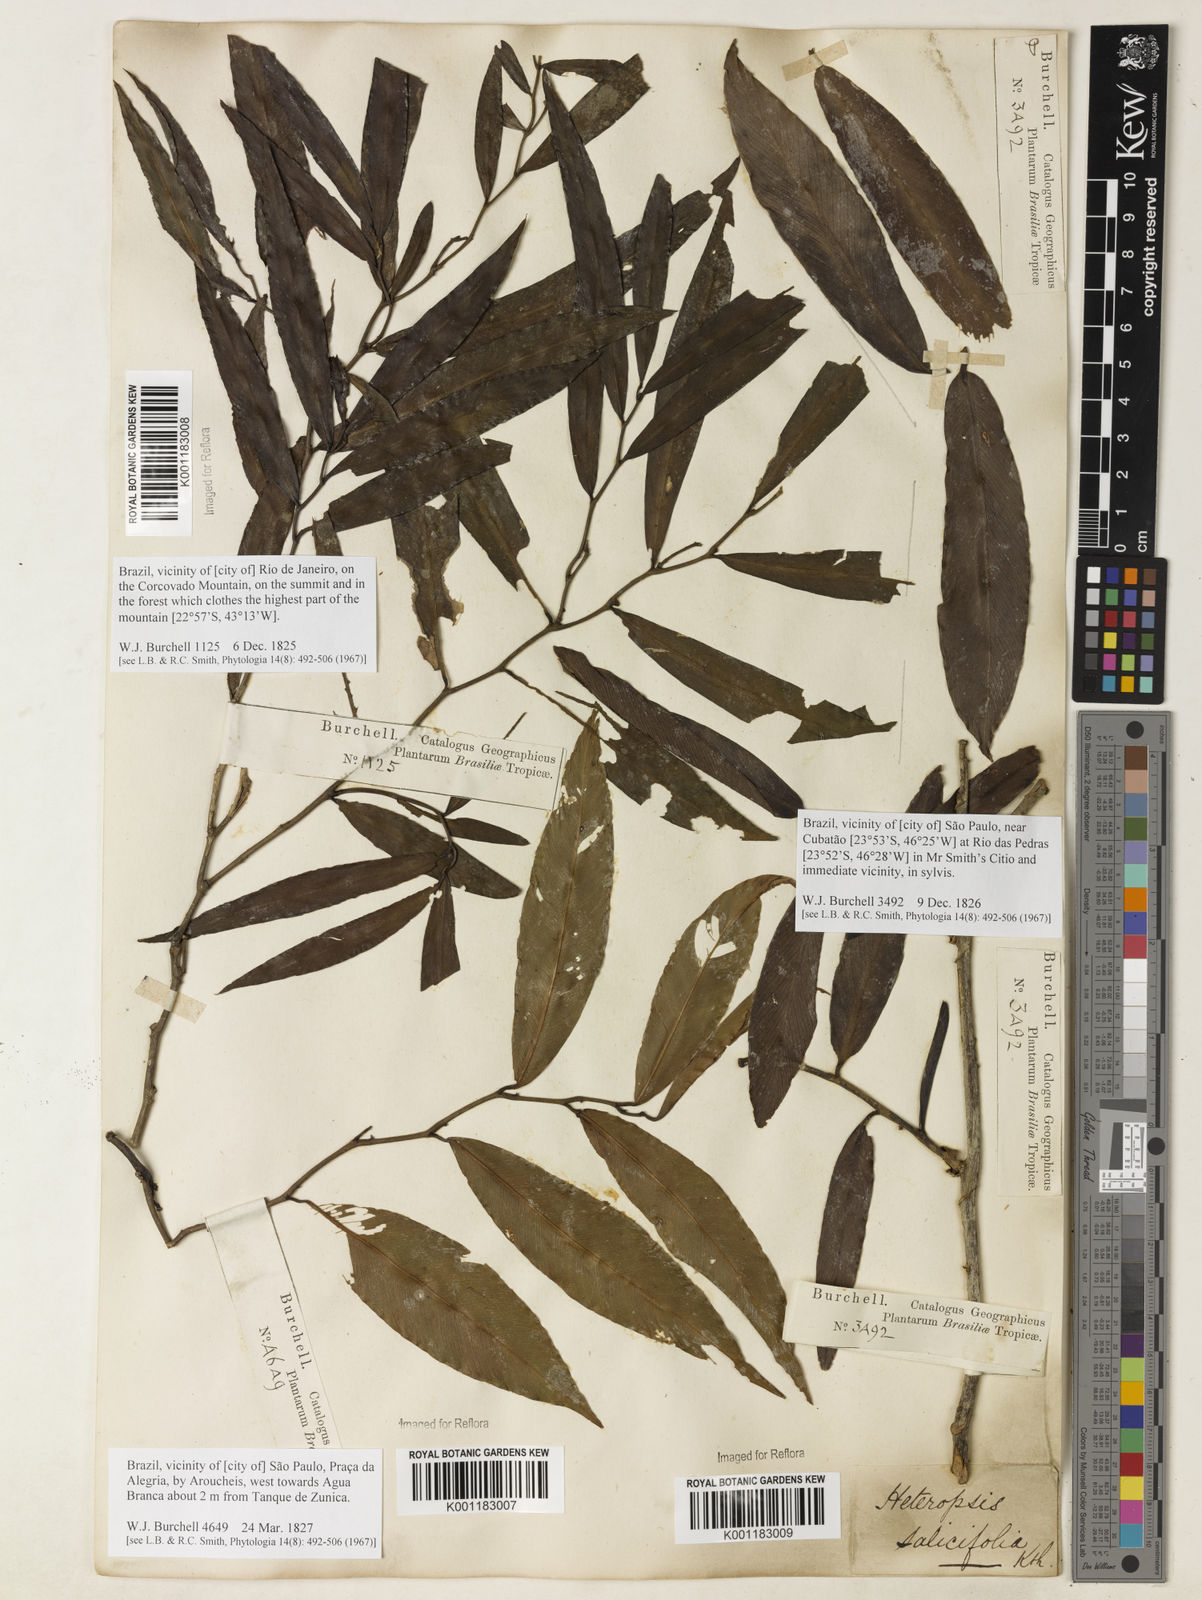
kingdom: Plantae
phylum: Tracheophyta
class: Liliopsida
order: Alismatales
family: Araceae
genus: Heteropsis
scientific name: Heteropsis salicifolia
